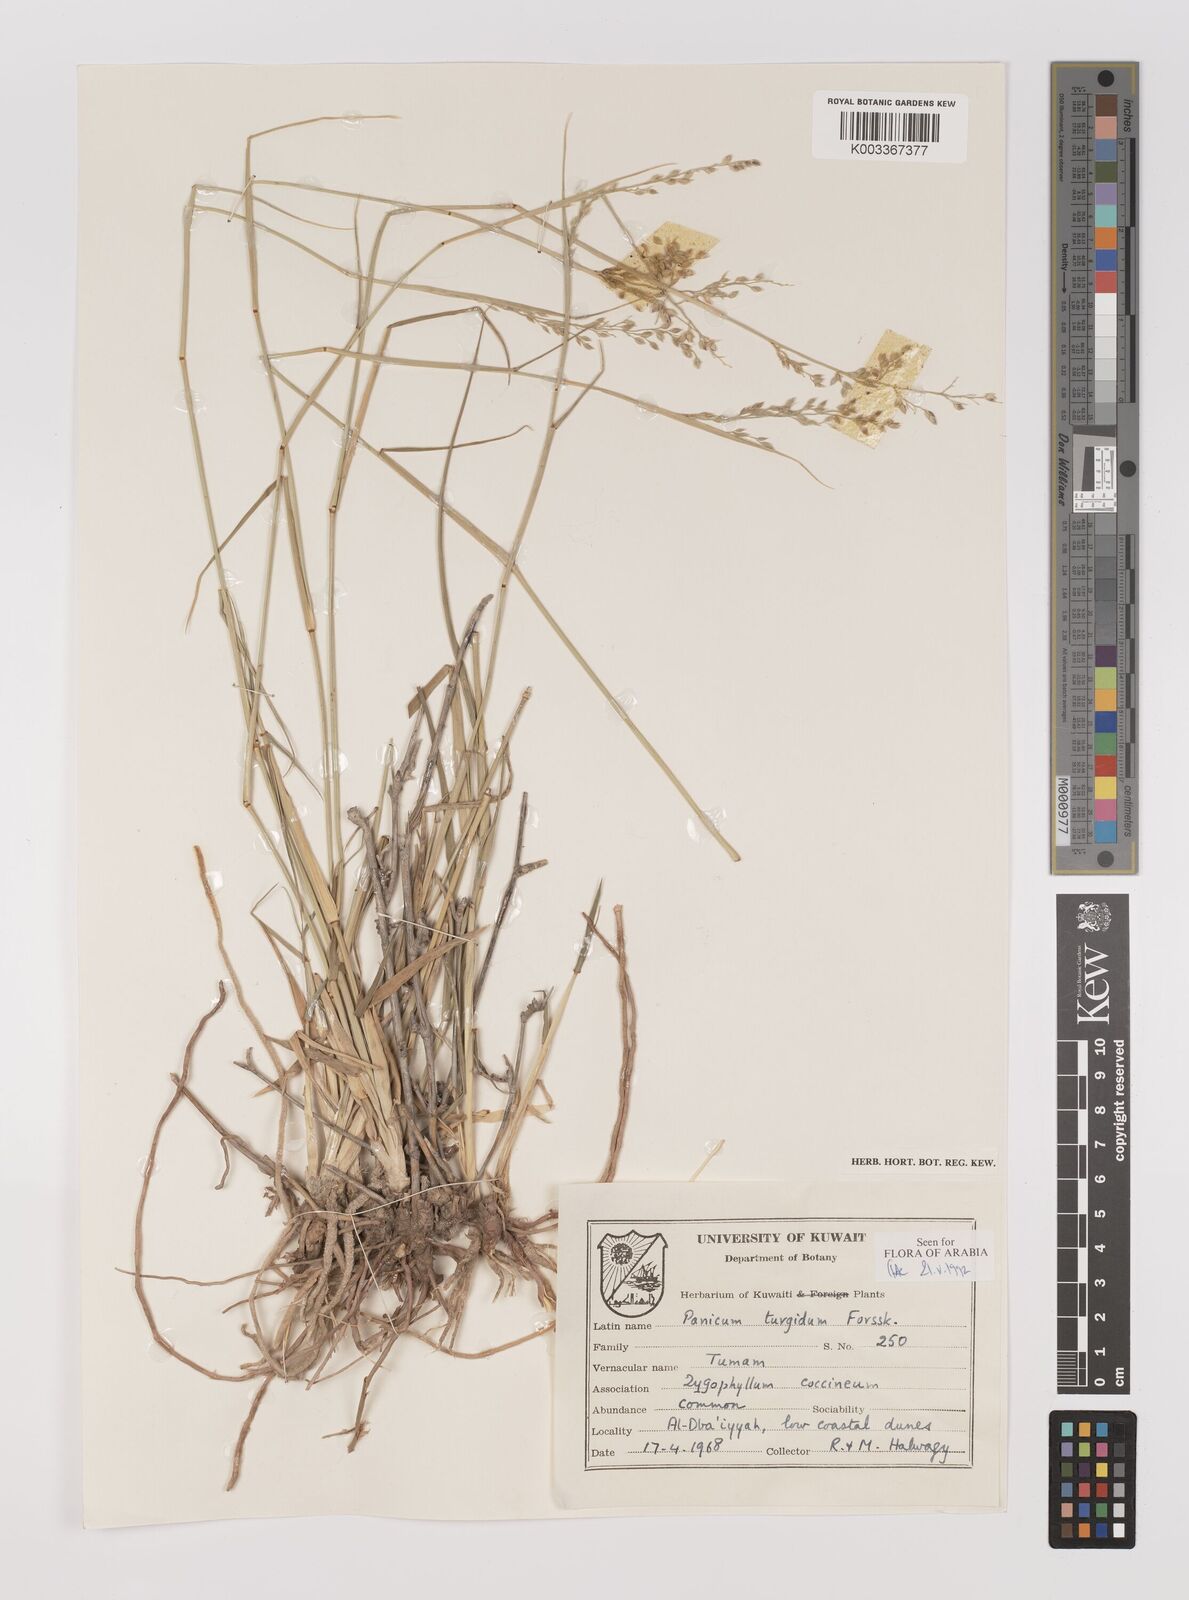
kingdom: Plantae
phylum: Tracheophyta
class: Liliopsida
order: Poales
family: Poaceae
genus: Panicum
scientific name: Panicum turgidum
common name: Desert grass
